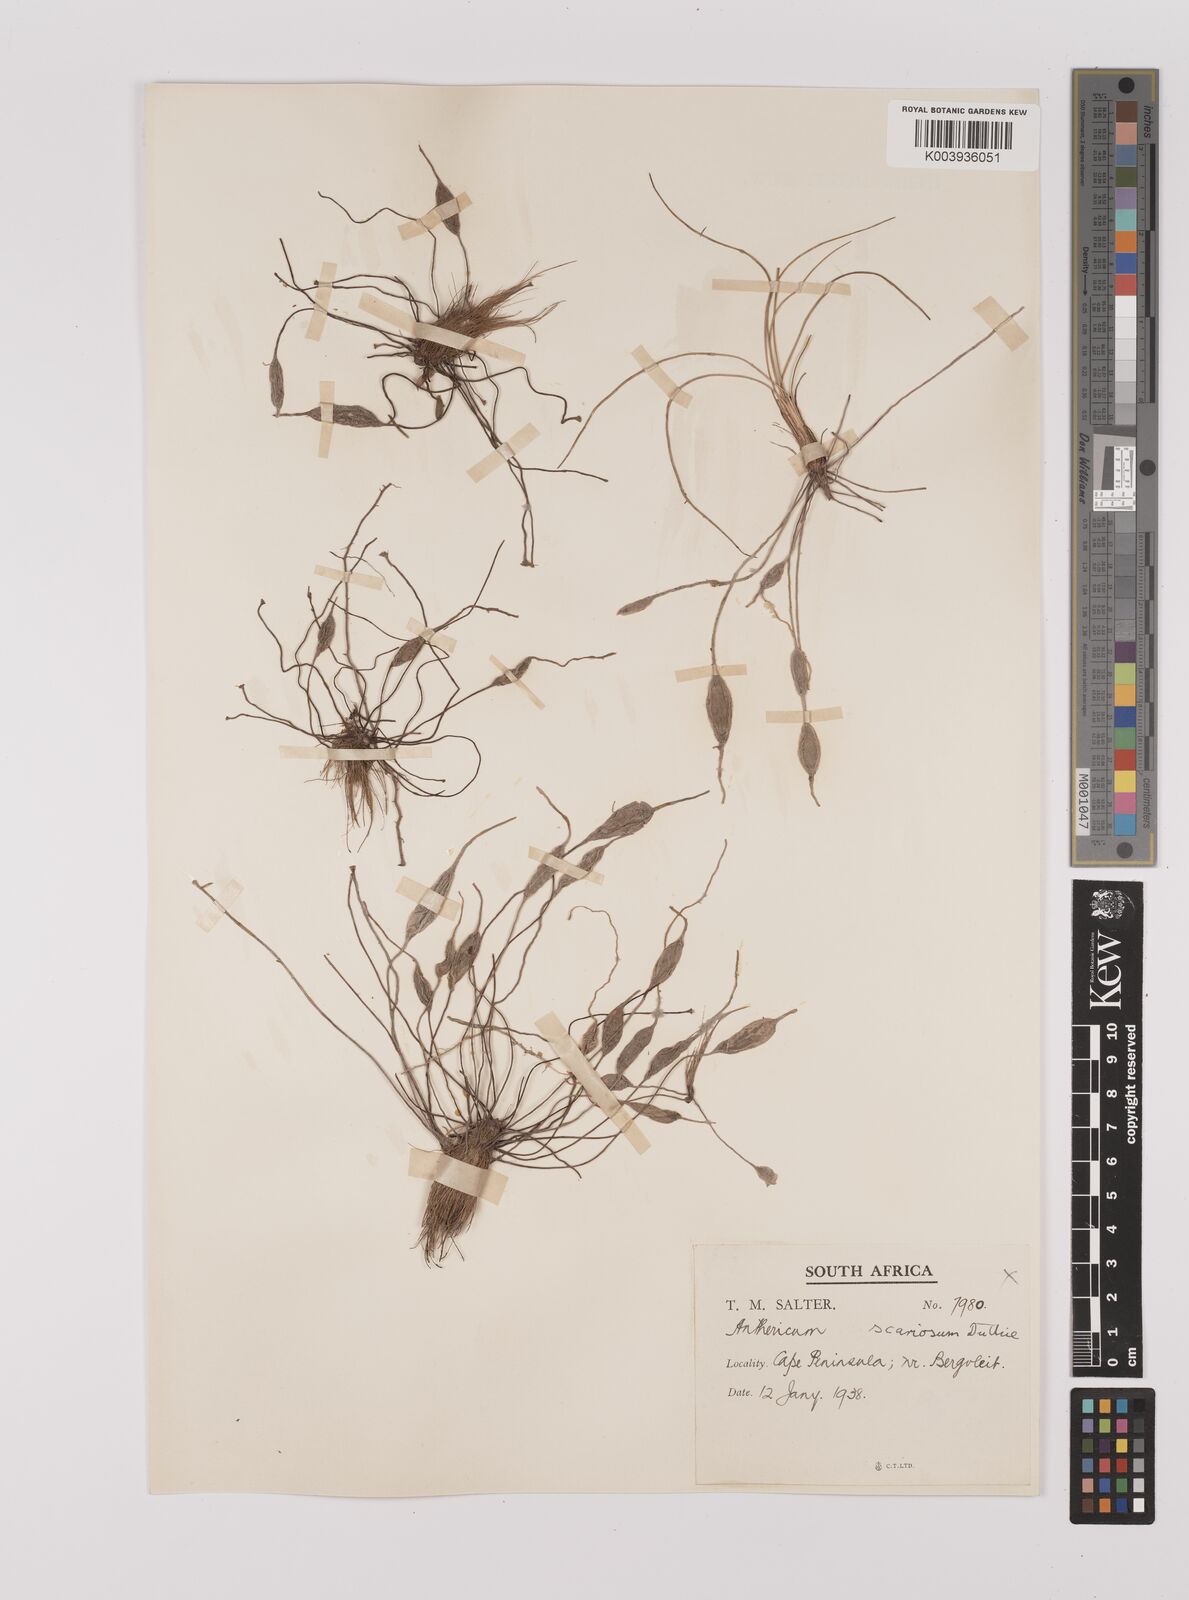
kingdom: Plantae
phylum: Tracheophyta
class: Liliopsida
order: Asparagales
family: Asparagaceae
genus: Chlorophytum
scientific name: Chlorophytum rangei
